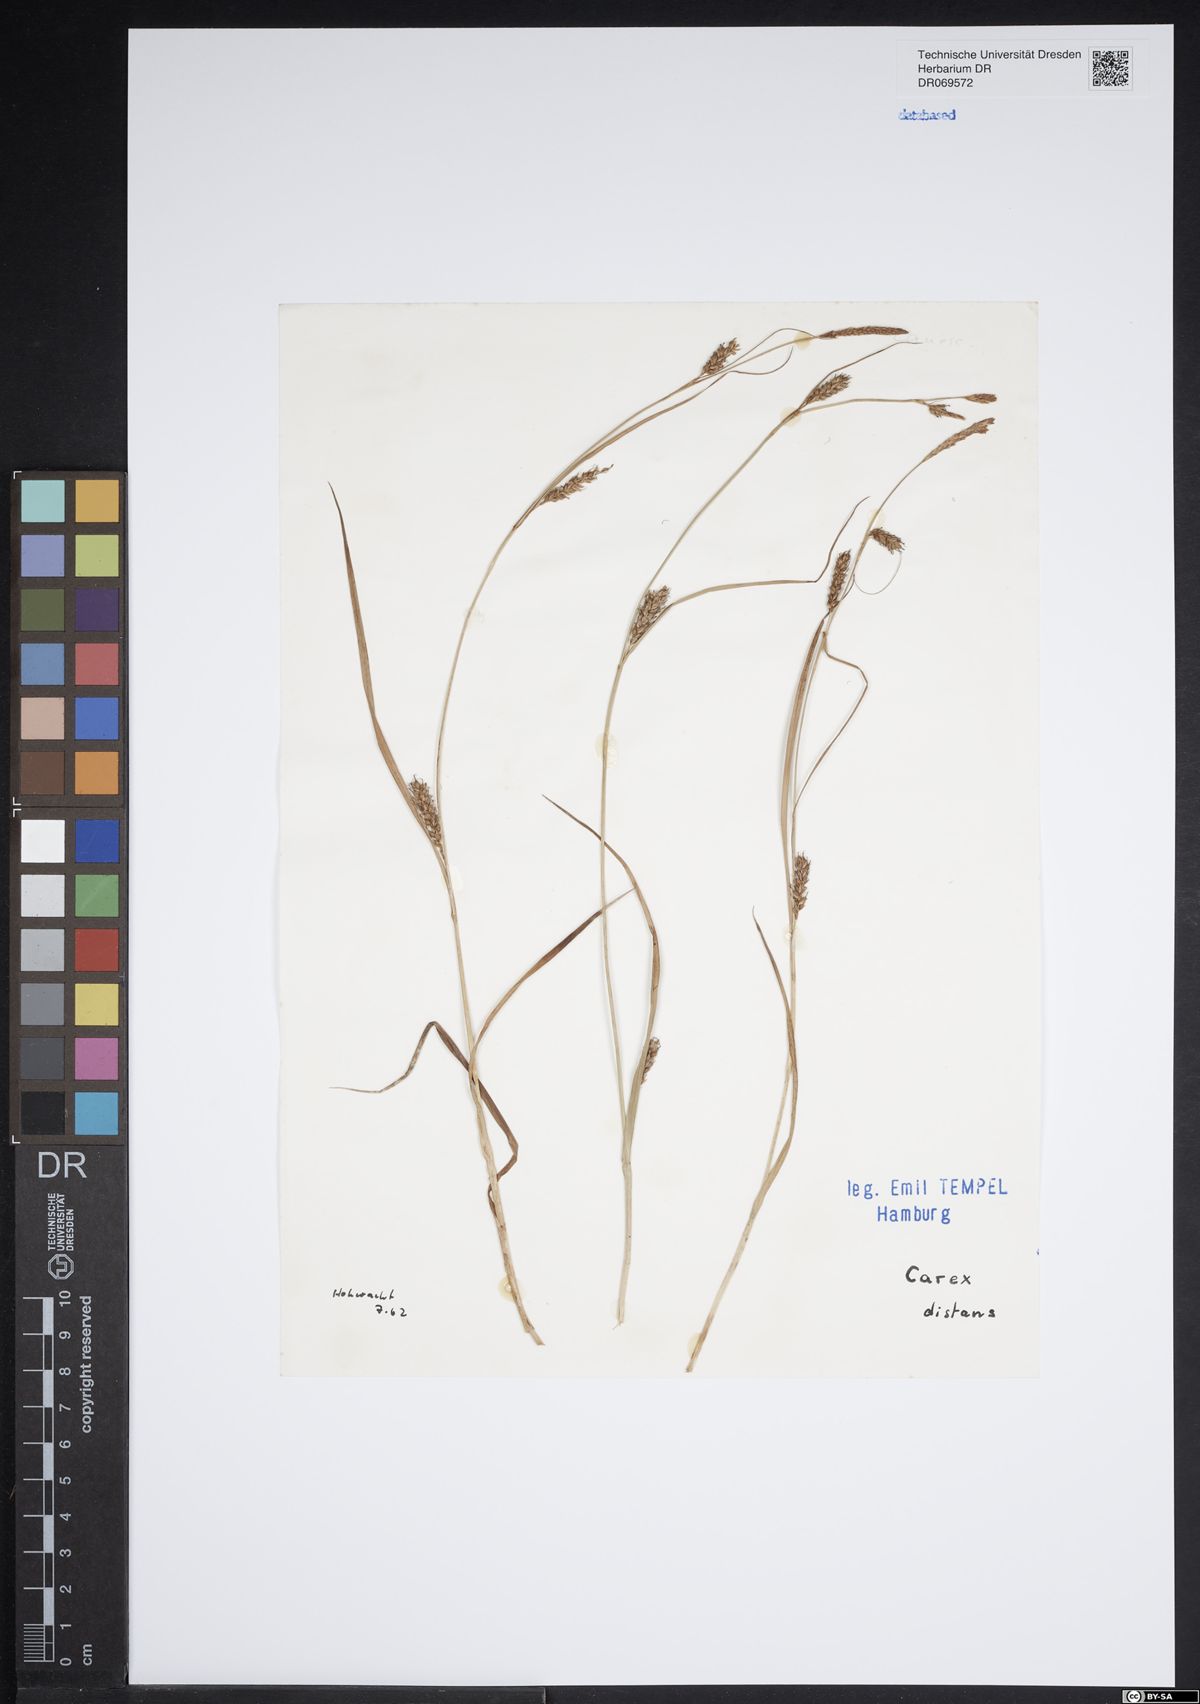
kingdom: Plantae
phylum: Tracheophyta
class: Liliopsida
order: Poales
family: Cyperaceae
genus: Carex
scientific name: Carex distans
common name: Distant sedge
